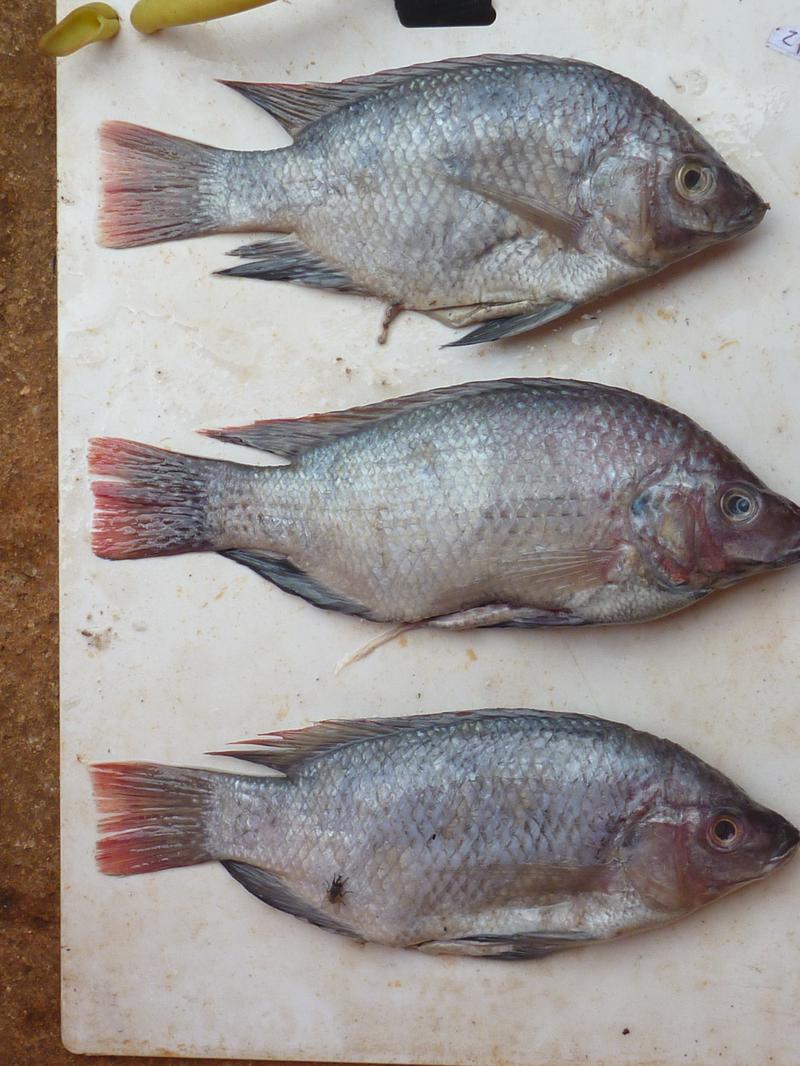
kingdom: Animalia
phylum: Chordata
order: Perciformes
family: Cichlidae
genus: Oreochromis
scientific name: Oreochromis rukwaensis
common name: Lake rukwa tilapia
